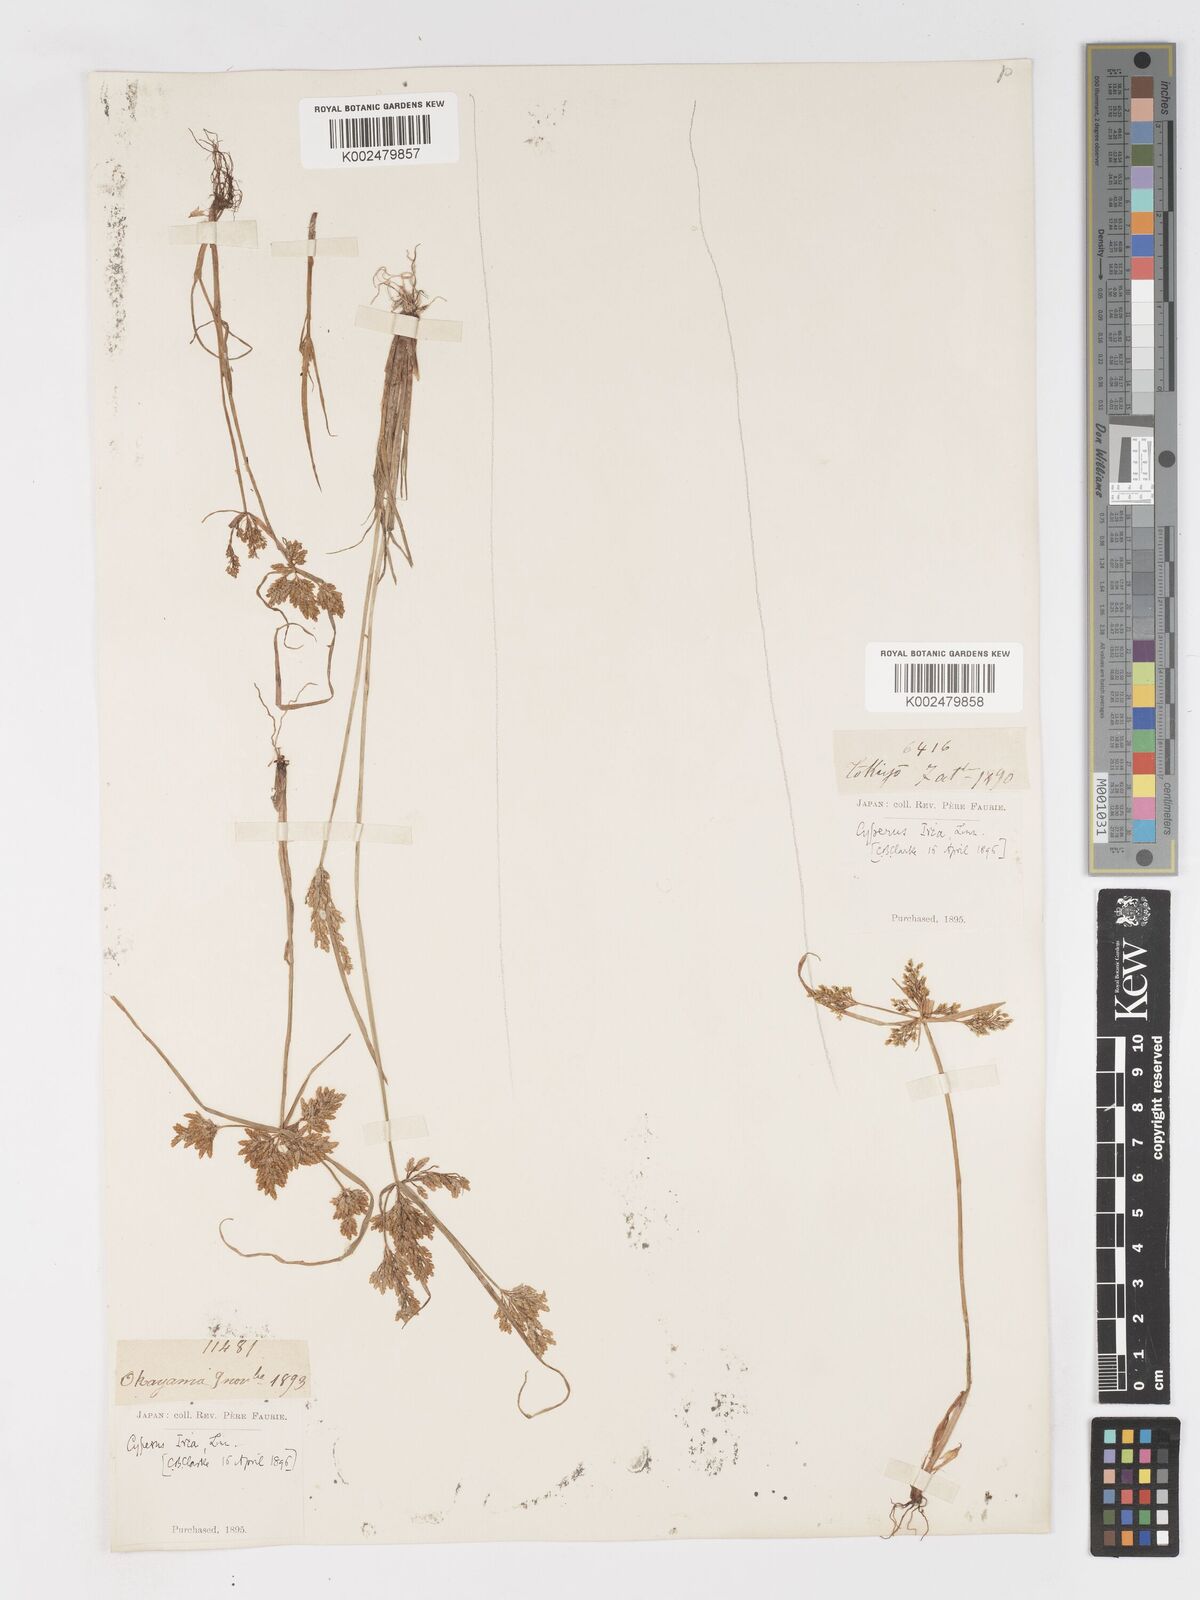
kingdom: Plantae
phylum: Tracheophyta
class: Liliopsida
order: Poales
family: Cyperaceae
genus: Cyperus
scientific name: Cyperus iria
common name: Ricefield flatsedge
